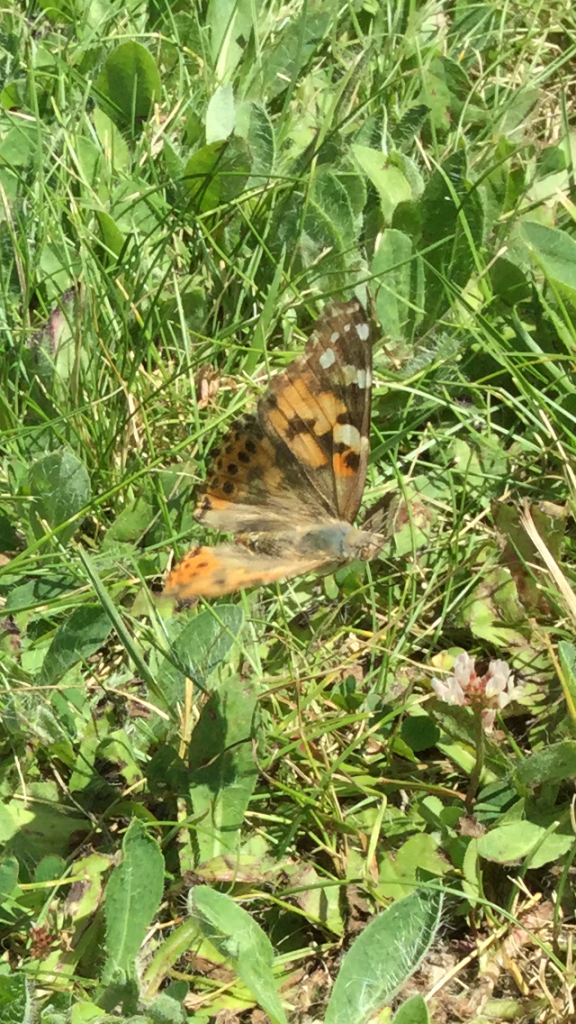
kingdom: Animalia
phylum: Arthropoda
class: Insecta
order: Lepidoptera
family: Nymphalidae
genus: Vanessa
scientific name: Vanessa cardui
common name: Painted Lady
